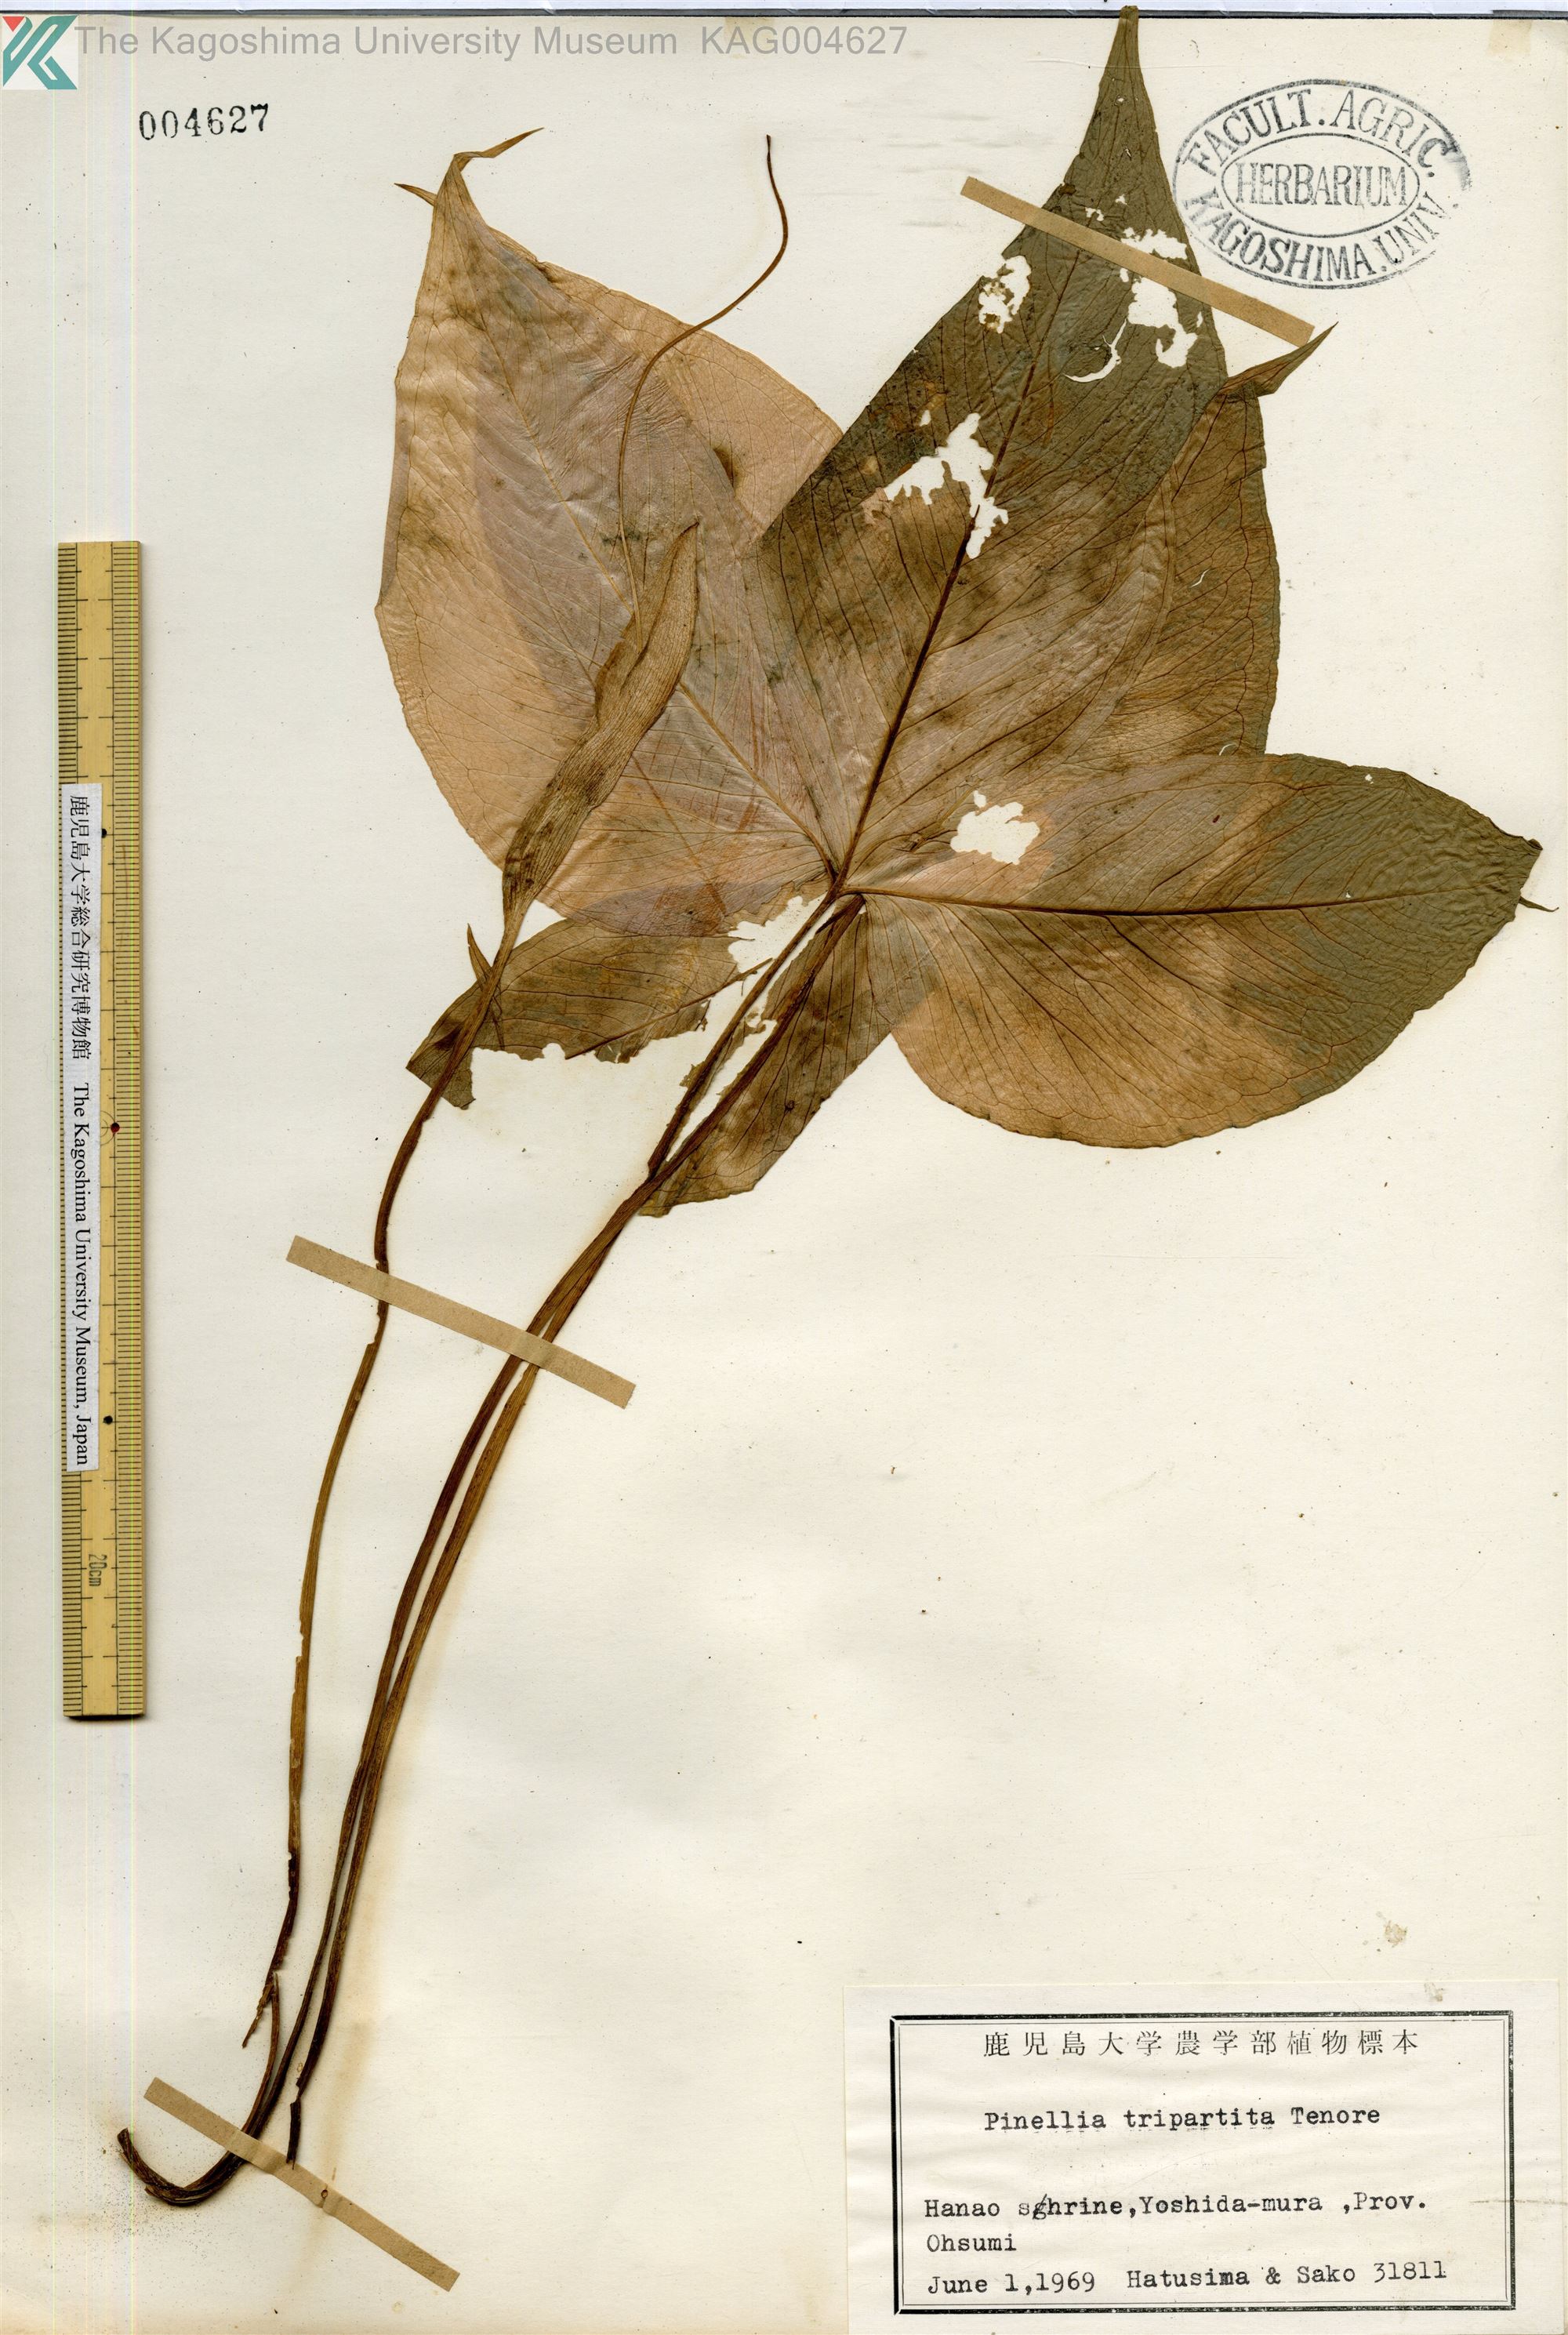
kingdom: Plantae
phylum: Tracheophyta
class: Liliopsida
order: Alismatales
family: Araceae
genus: Pinellia
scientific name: Pinellia tripartita
